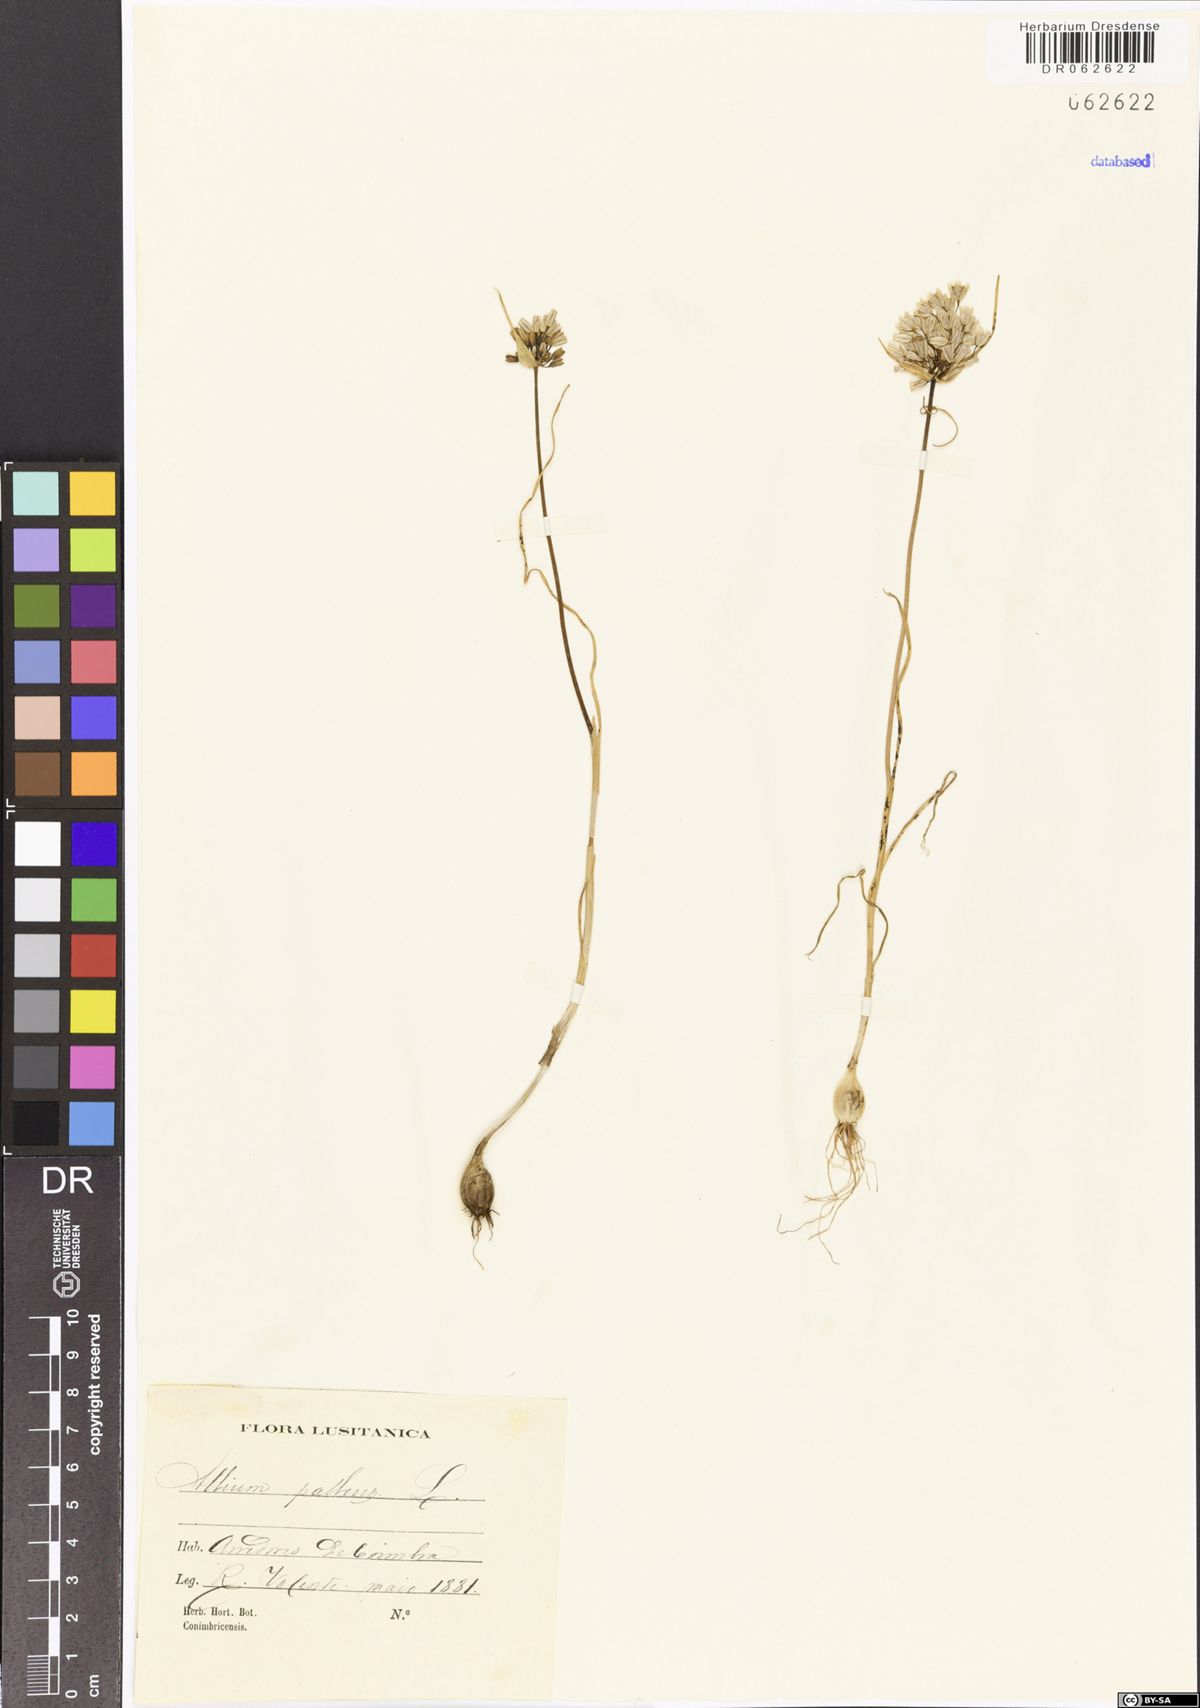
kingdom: Plantae
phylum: Tracheophyta
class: Liliopsida
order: Asparagales
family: Amaryllidaceae
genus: Allium
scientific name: Allium pallens
